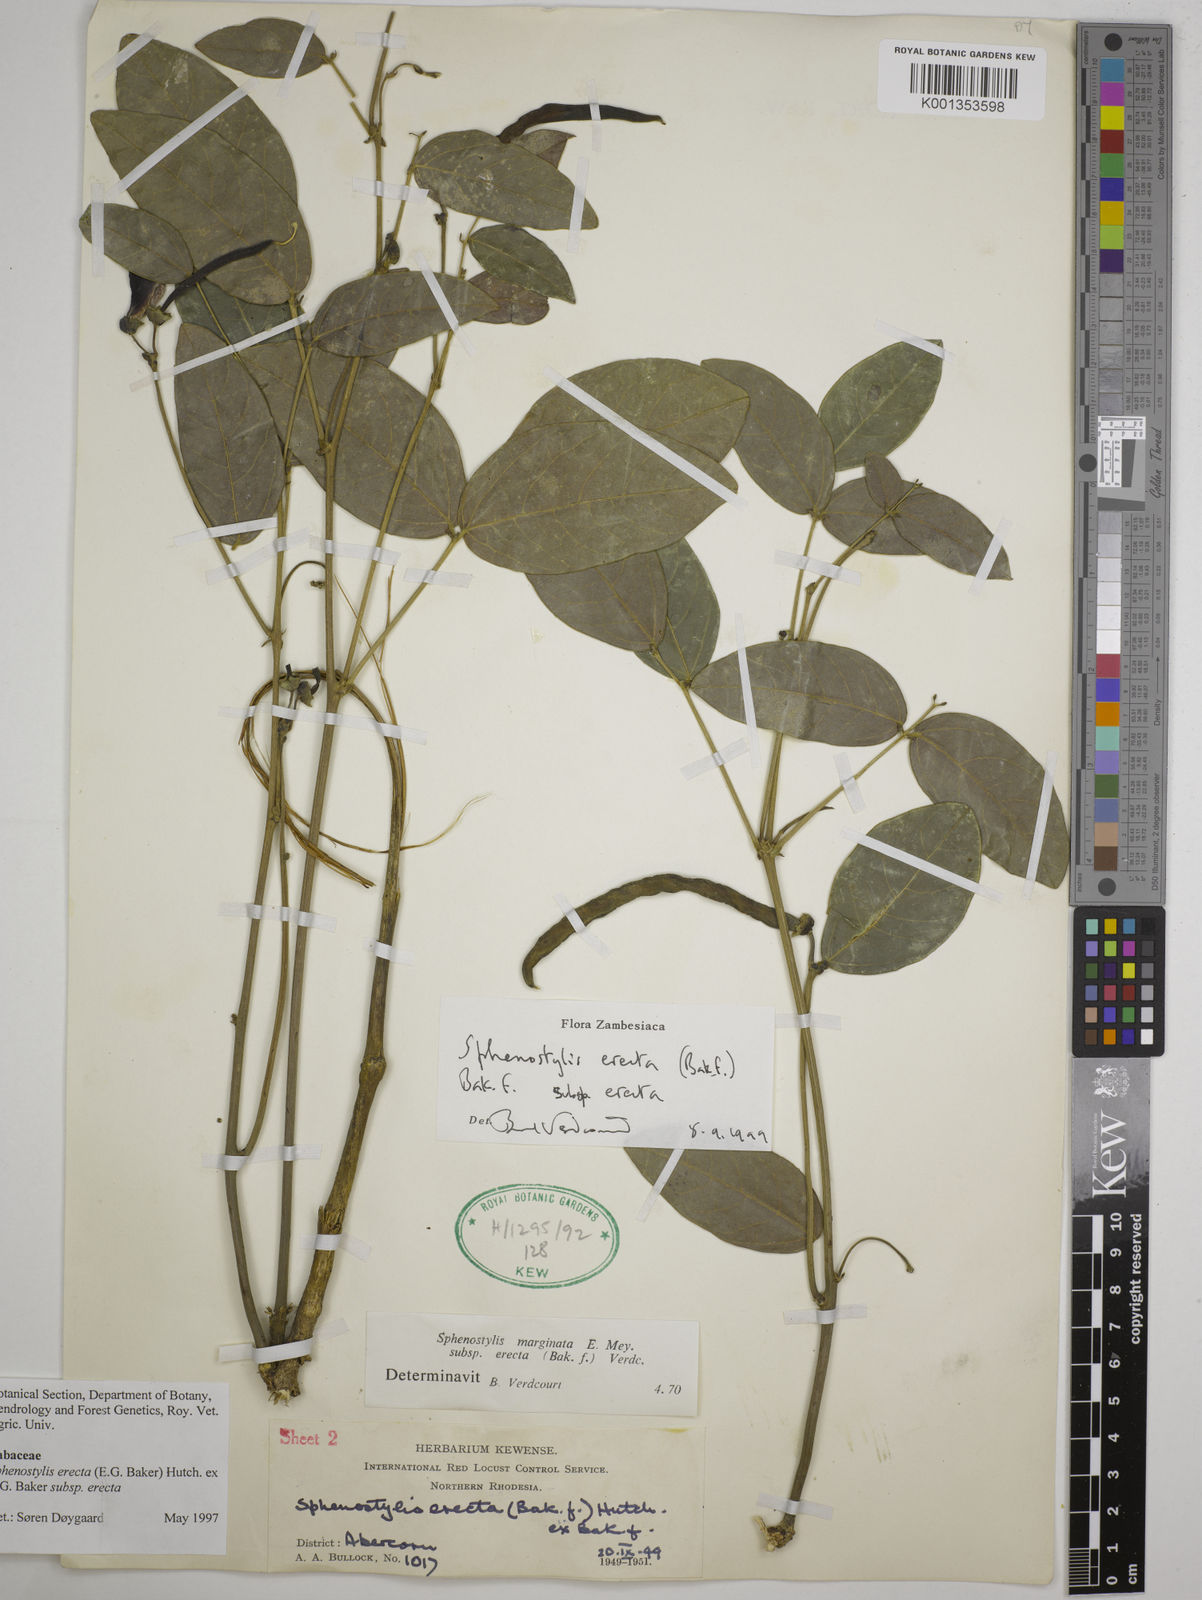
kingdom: Plantae
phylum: Tracheophyta
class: Magnoliopsida
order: Fabales
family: Fabaceae
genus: Sphenostylis
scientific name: Sphenostylis erecta
